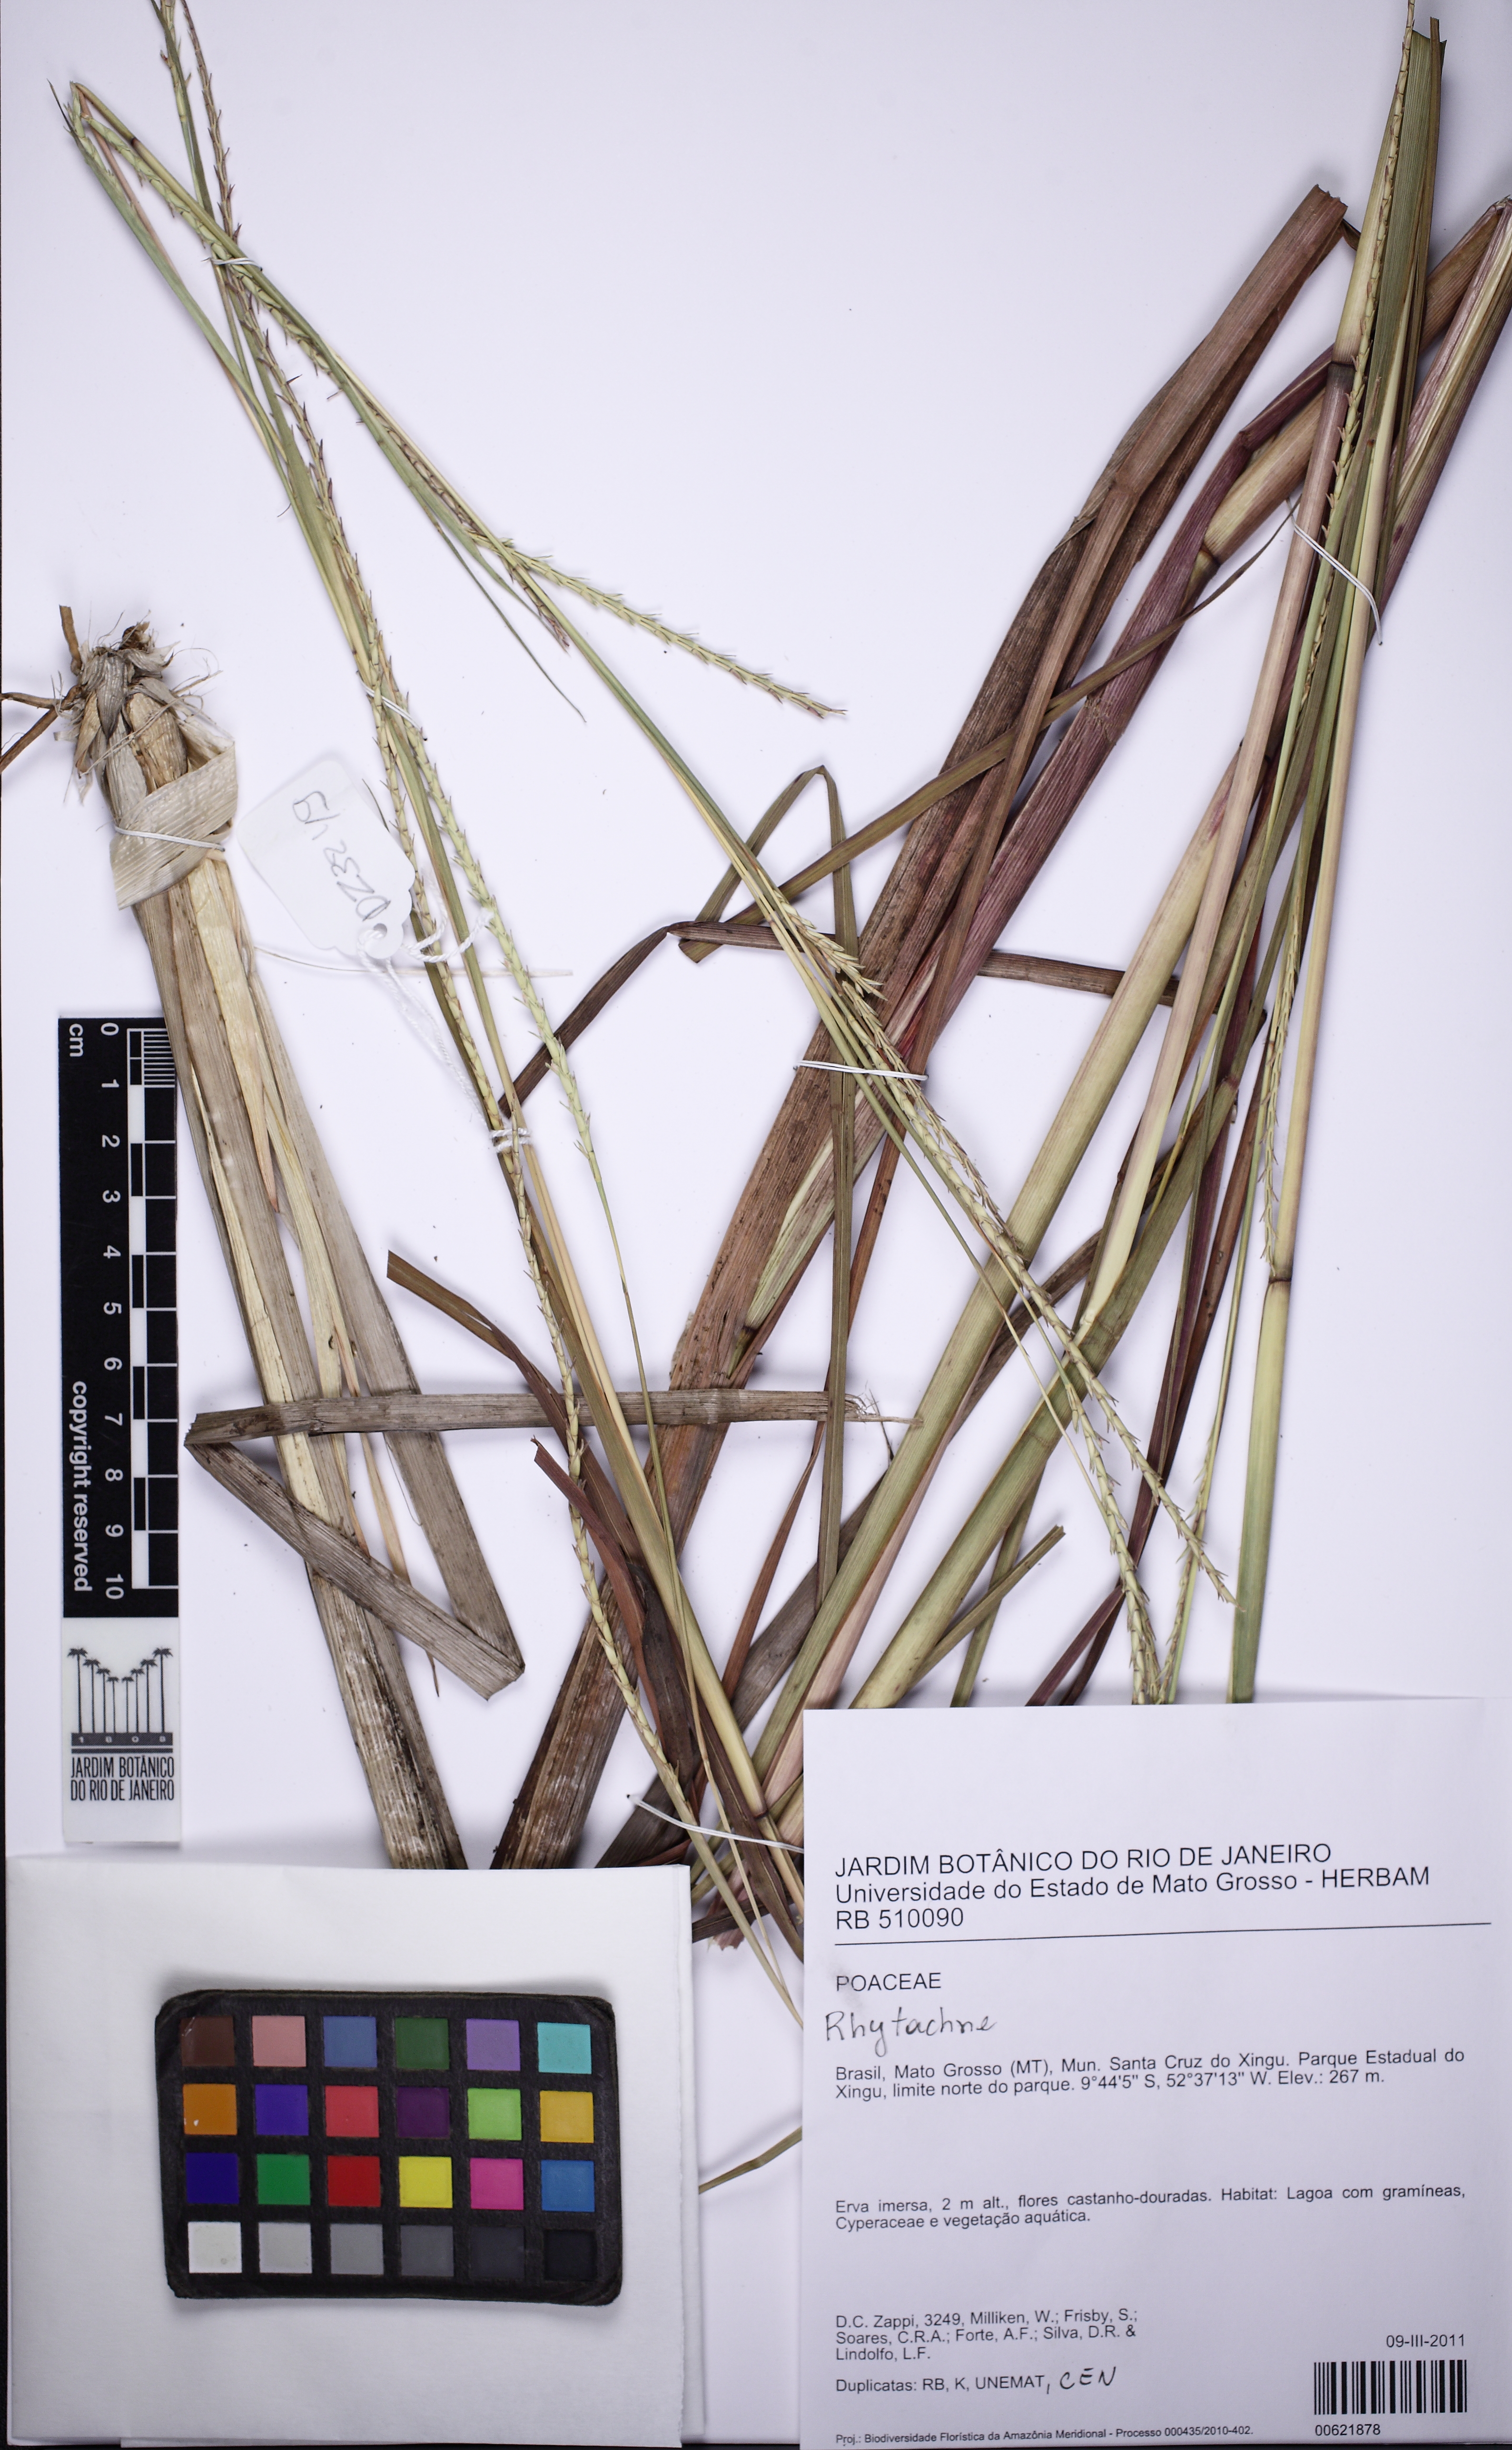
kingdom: Plantae
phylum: Tracheophyta
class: Liliopsida
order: Poales
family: Poaceae
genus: Rhytachne
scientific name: Rhytachne
